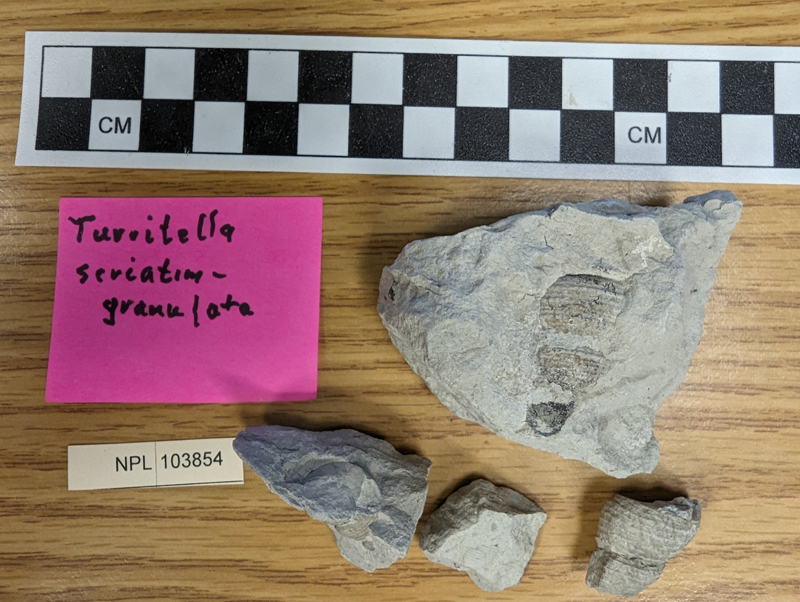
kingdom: Animalia
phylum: Mollusca
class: Gastropoda
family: Turritellidae
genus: Turritella
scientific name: Turritella seriatimgranulata
